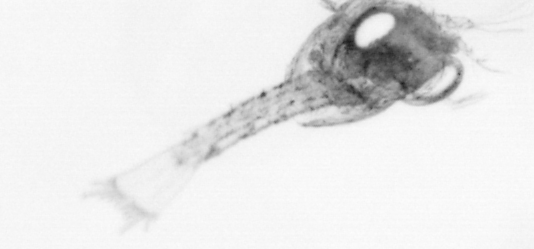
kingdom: Animalia
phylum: Arthropoda
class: Copepoda
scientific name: Copepoda
